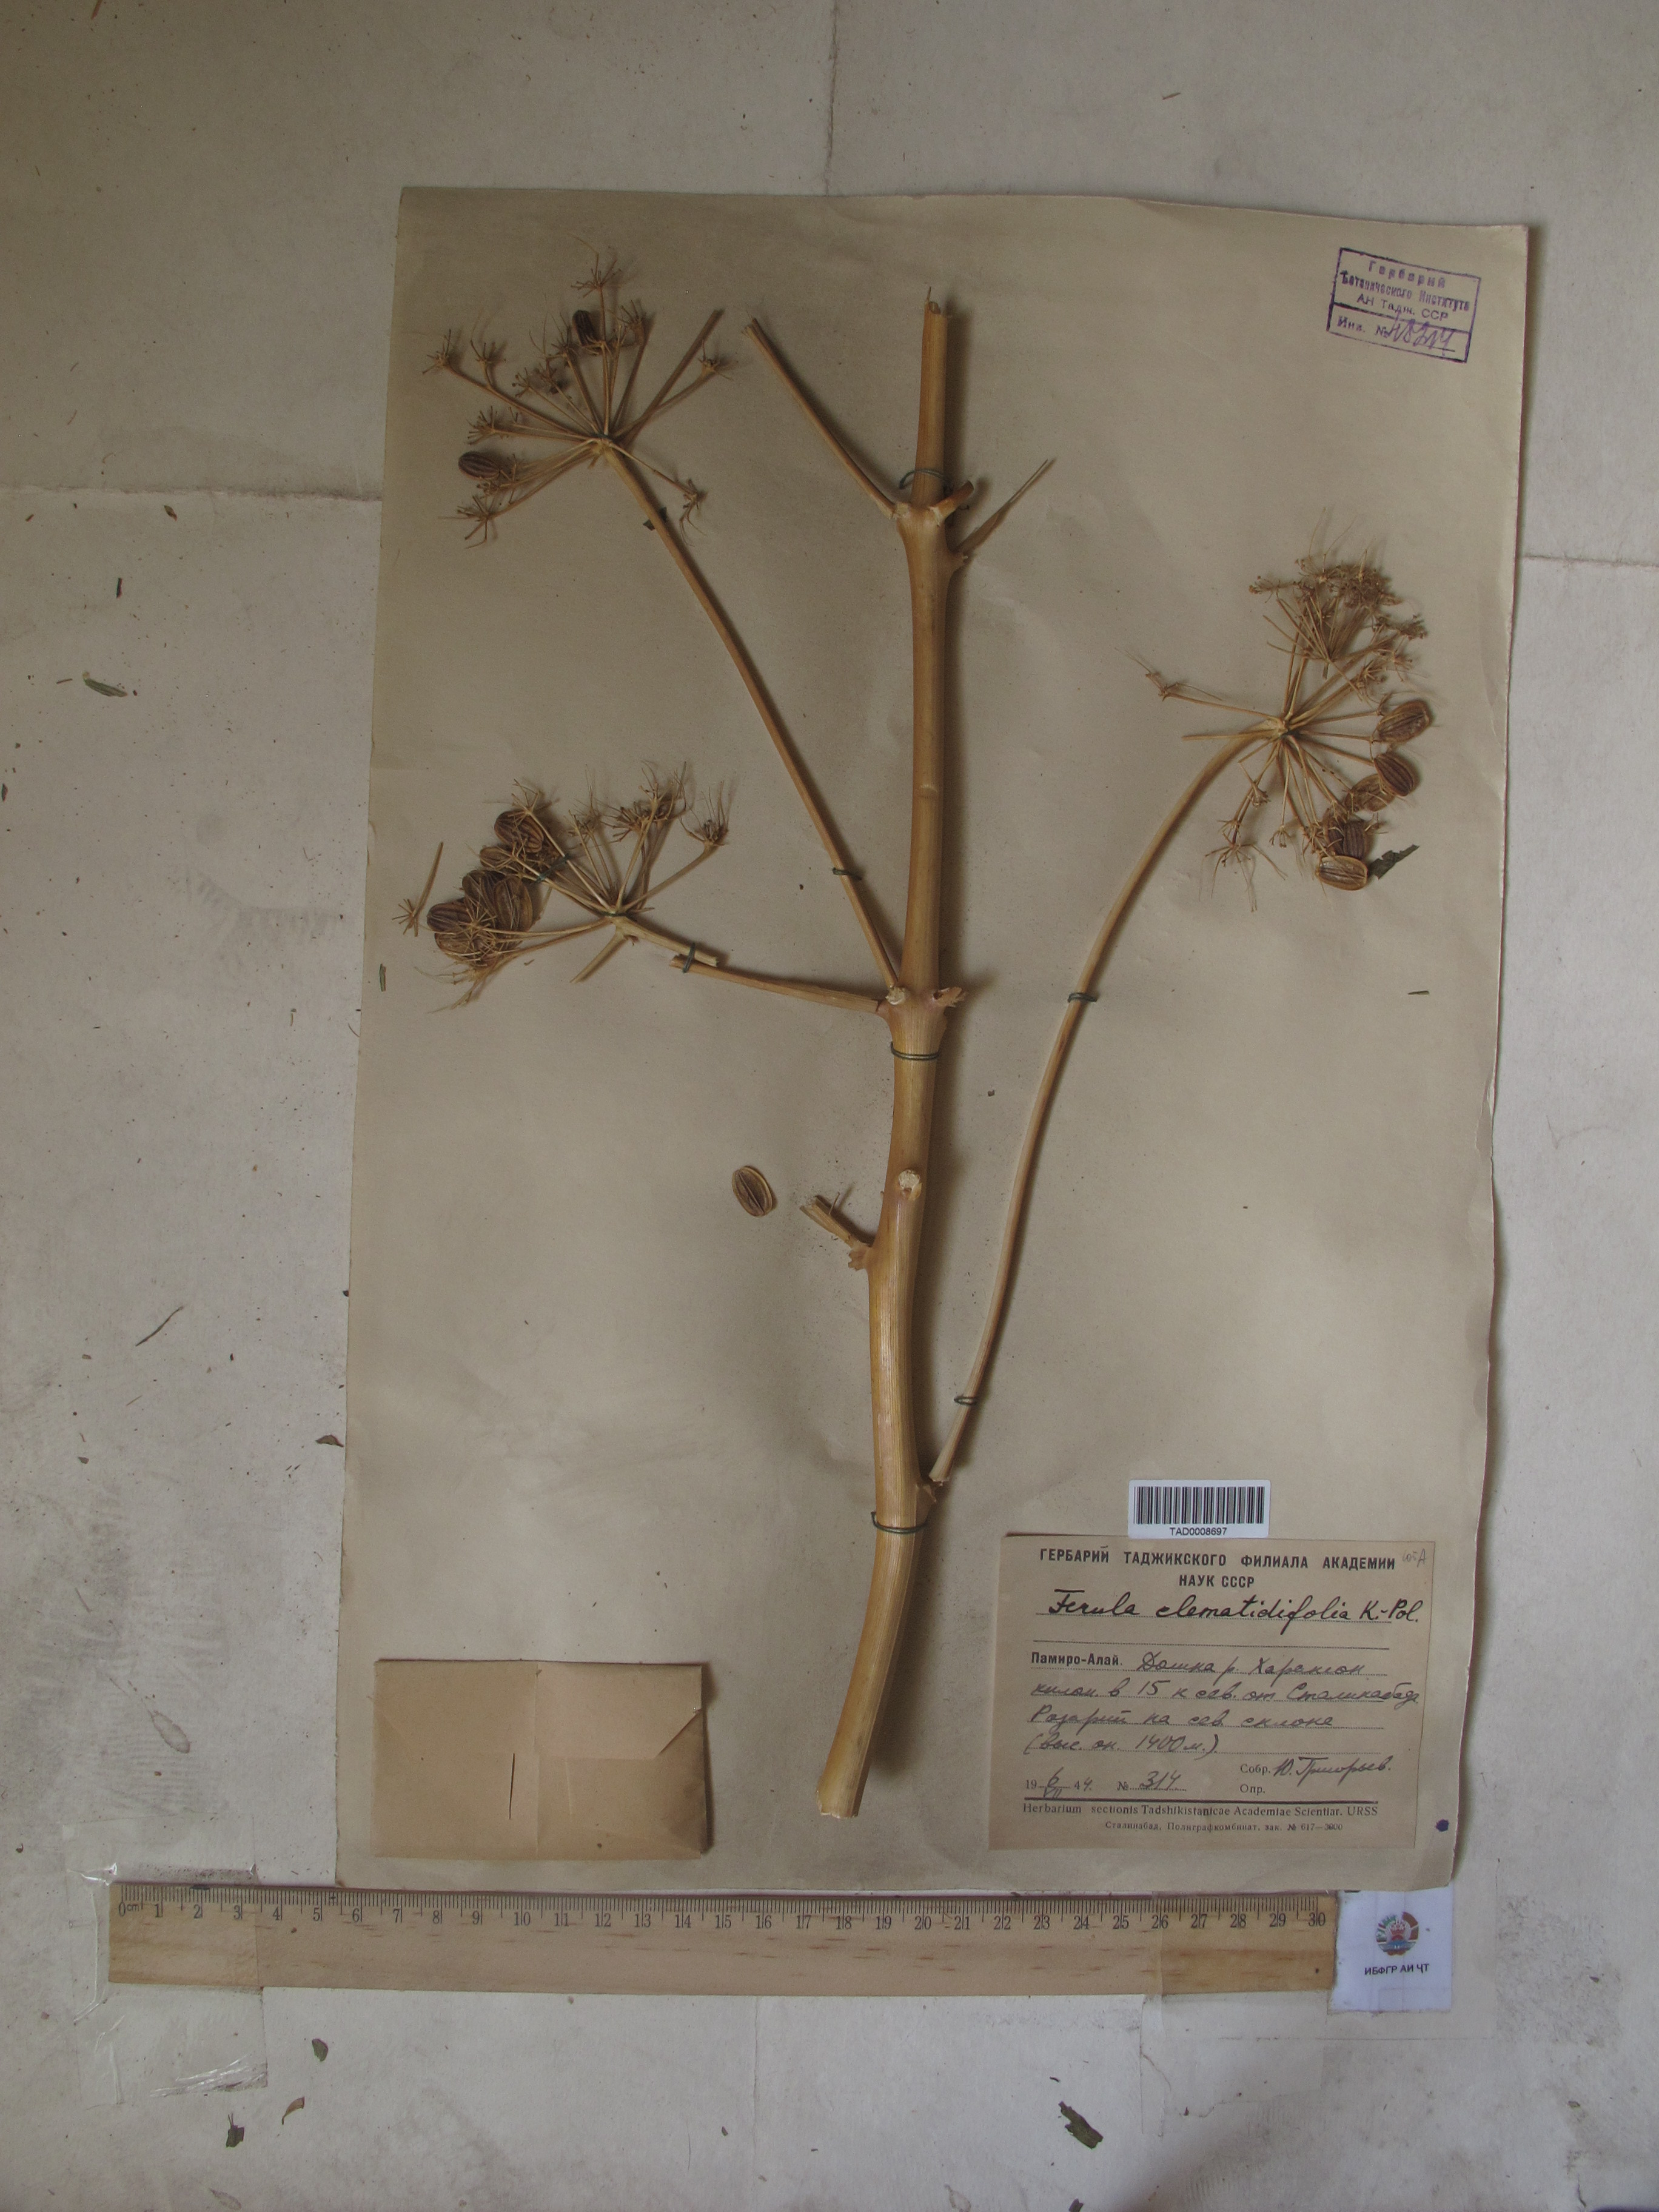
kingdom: Plantae
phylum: Tracheophyta
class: Magnoliopsida
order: Apiales
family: Apiaceae
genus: Ferula
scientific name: Ferula clematidifolia
